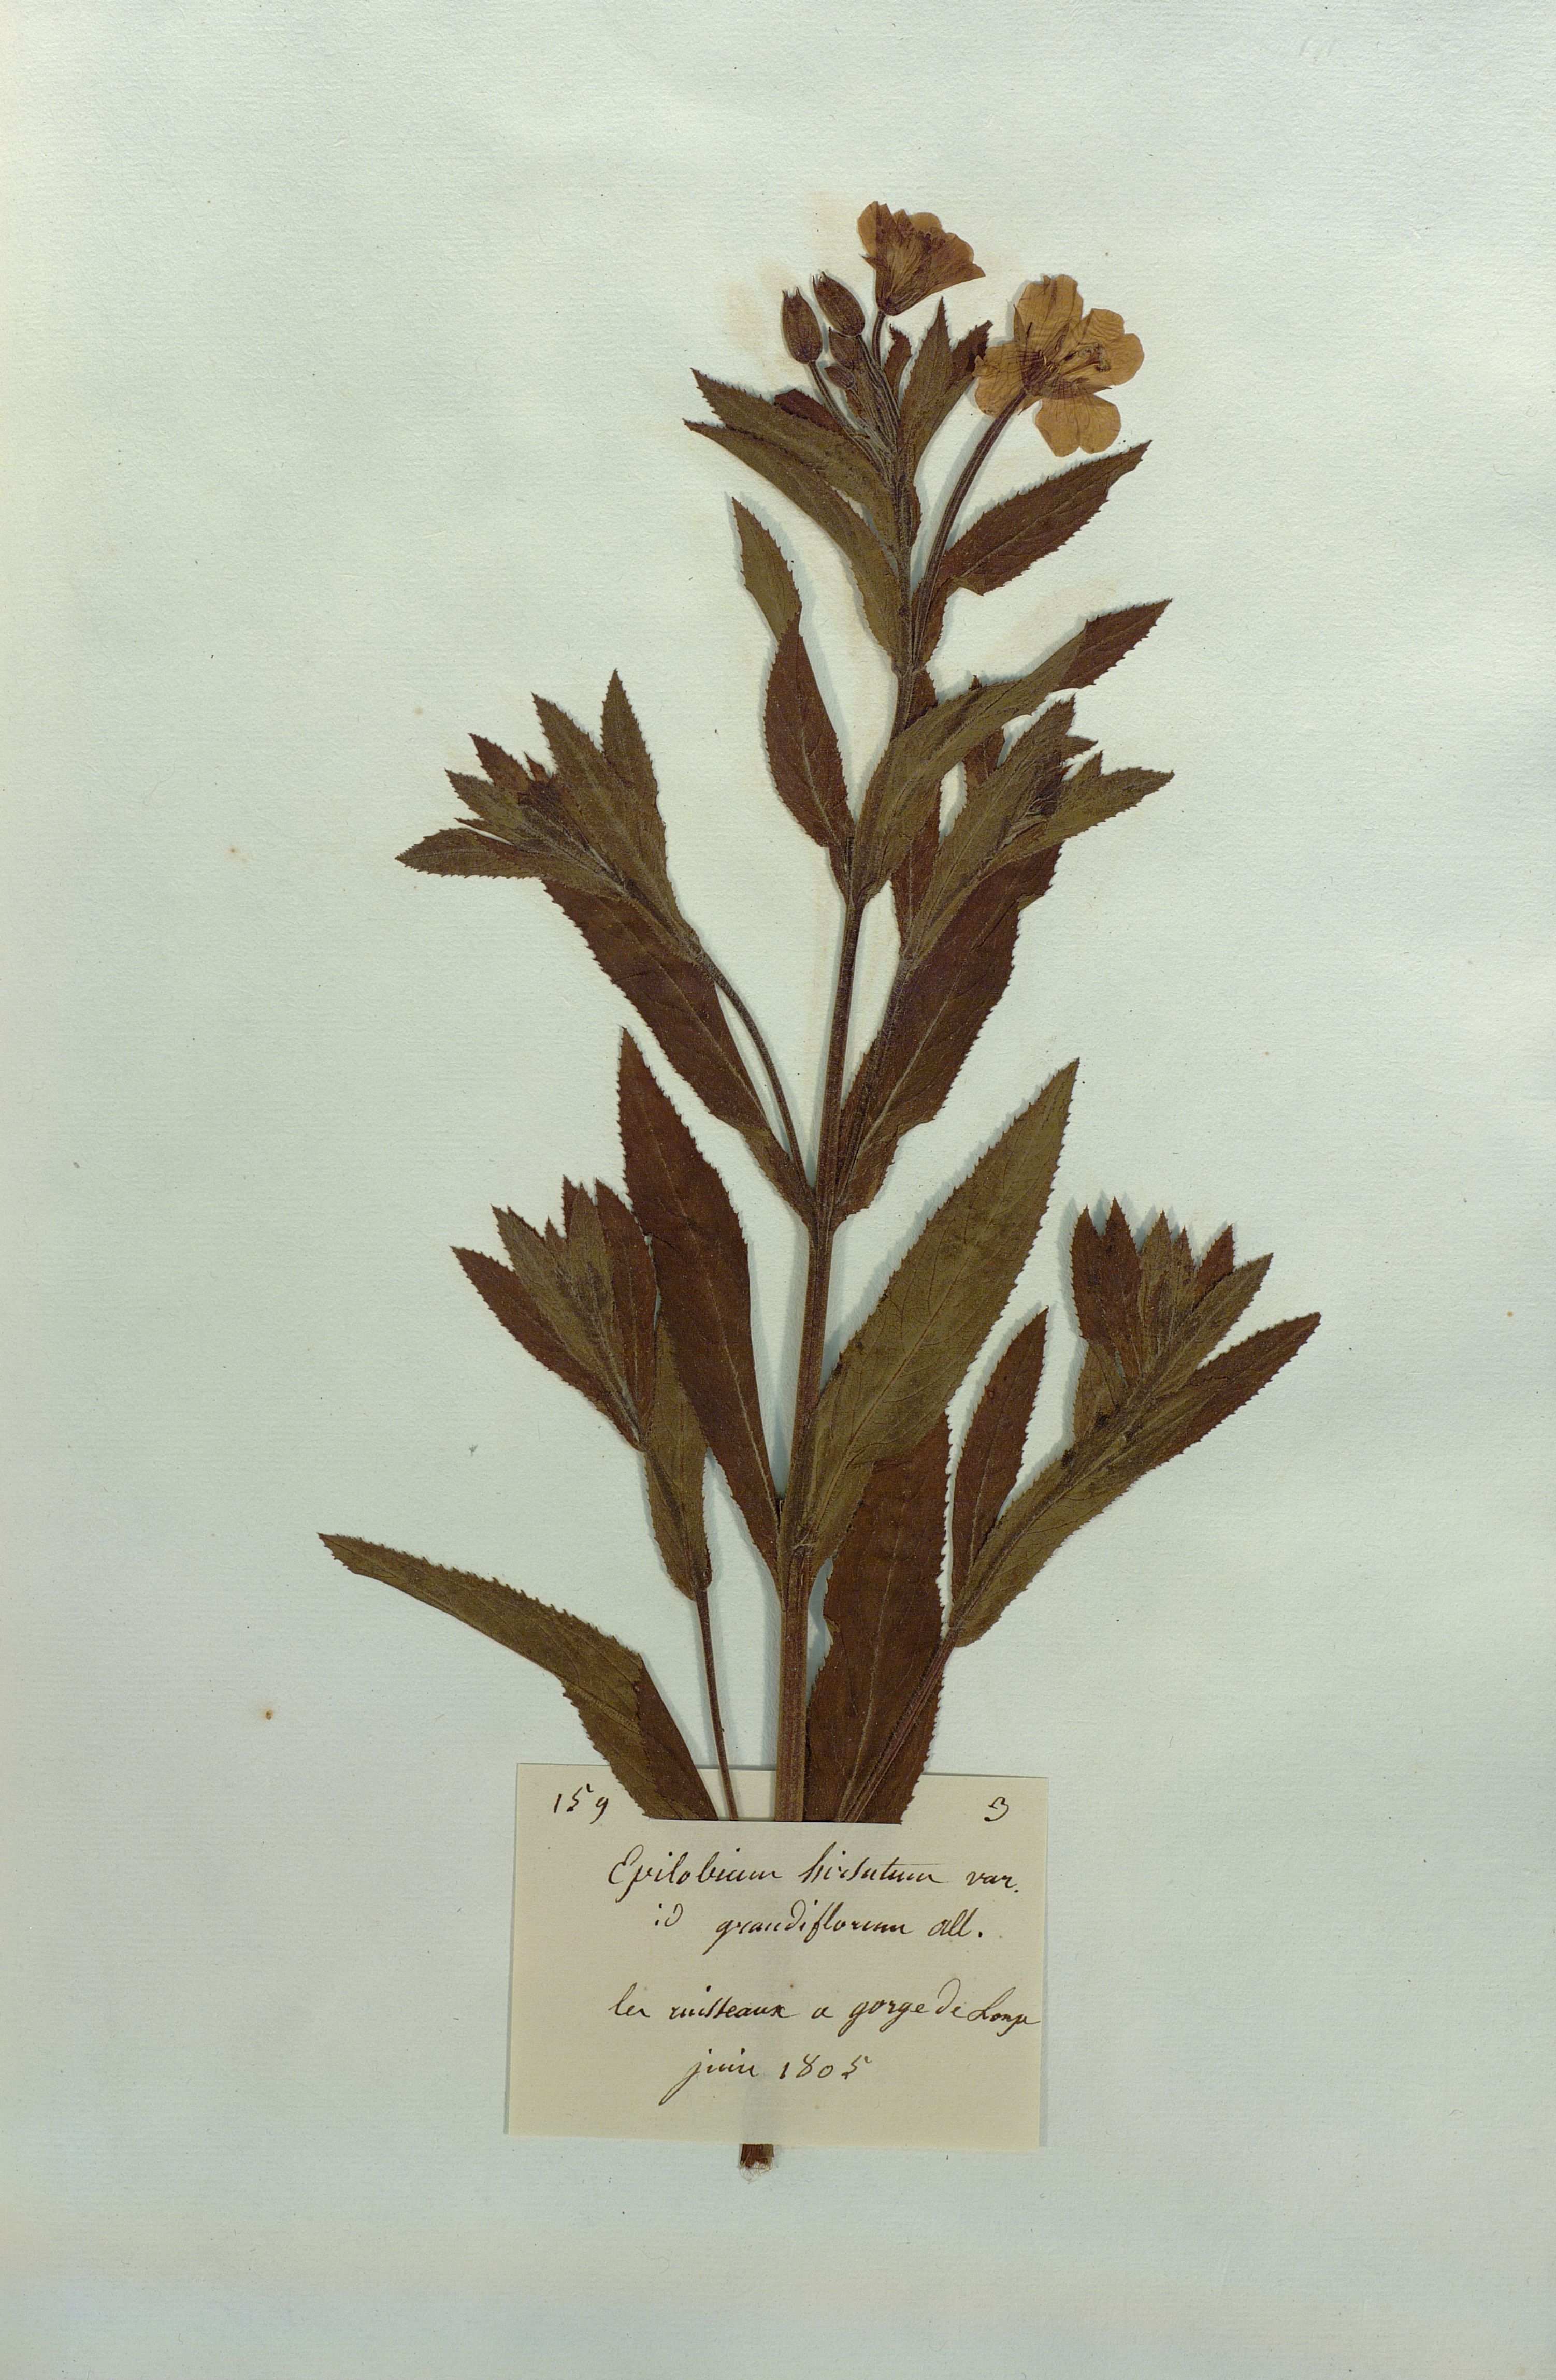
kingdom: Plantae
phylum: Tracheophyta
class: Magnoliopsida
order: Myrtales
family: Onagraceae
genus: Epilobium
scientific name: Epilobium hirsutum
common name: Great willowherb
